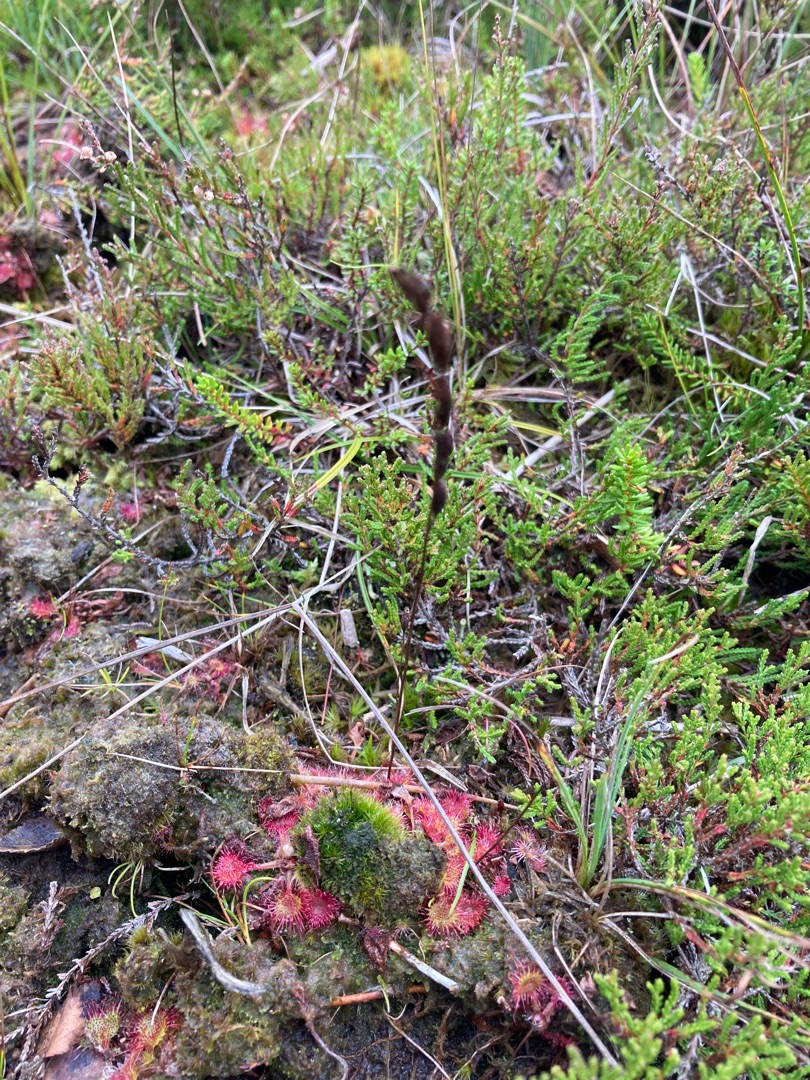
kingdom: Plantae
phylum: Tracheophyta
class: Magnoliopsida
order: Caryophyllales
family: Droseraceae
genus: Drosera
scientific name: Drosera rotundifolia
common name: Rundbladet soldug
